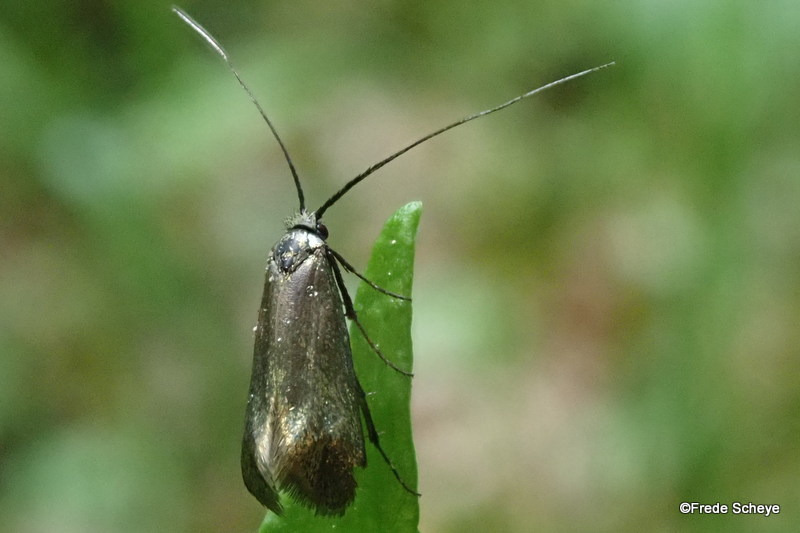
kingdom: Animalia
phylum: Arthropoda
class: Insecta
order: Lepidoptera
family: Adelidae
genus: Adela
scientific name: Adela viridella
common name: Egelanghornsmøl
